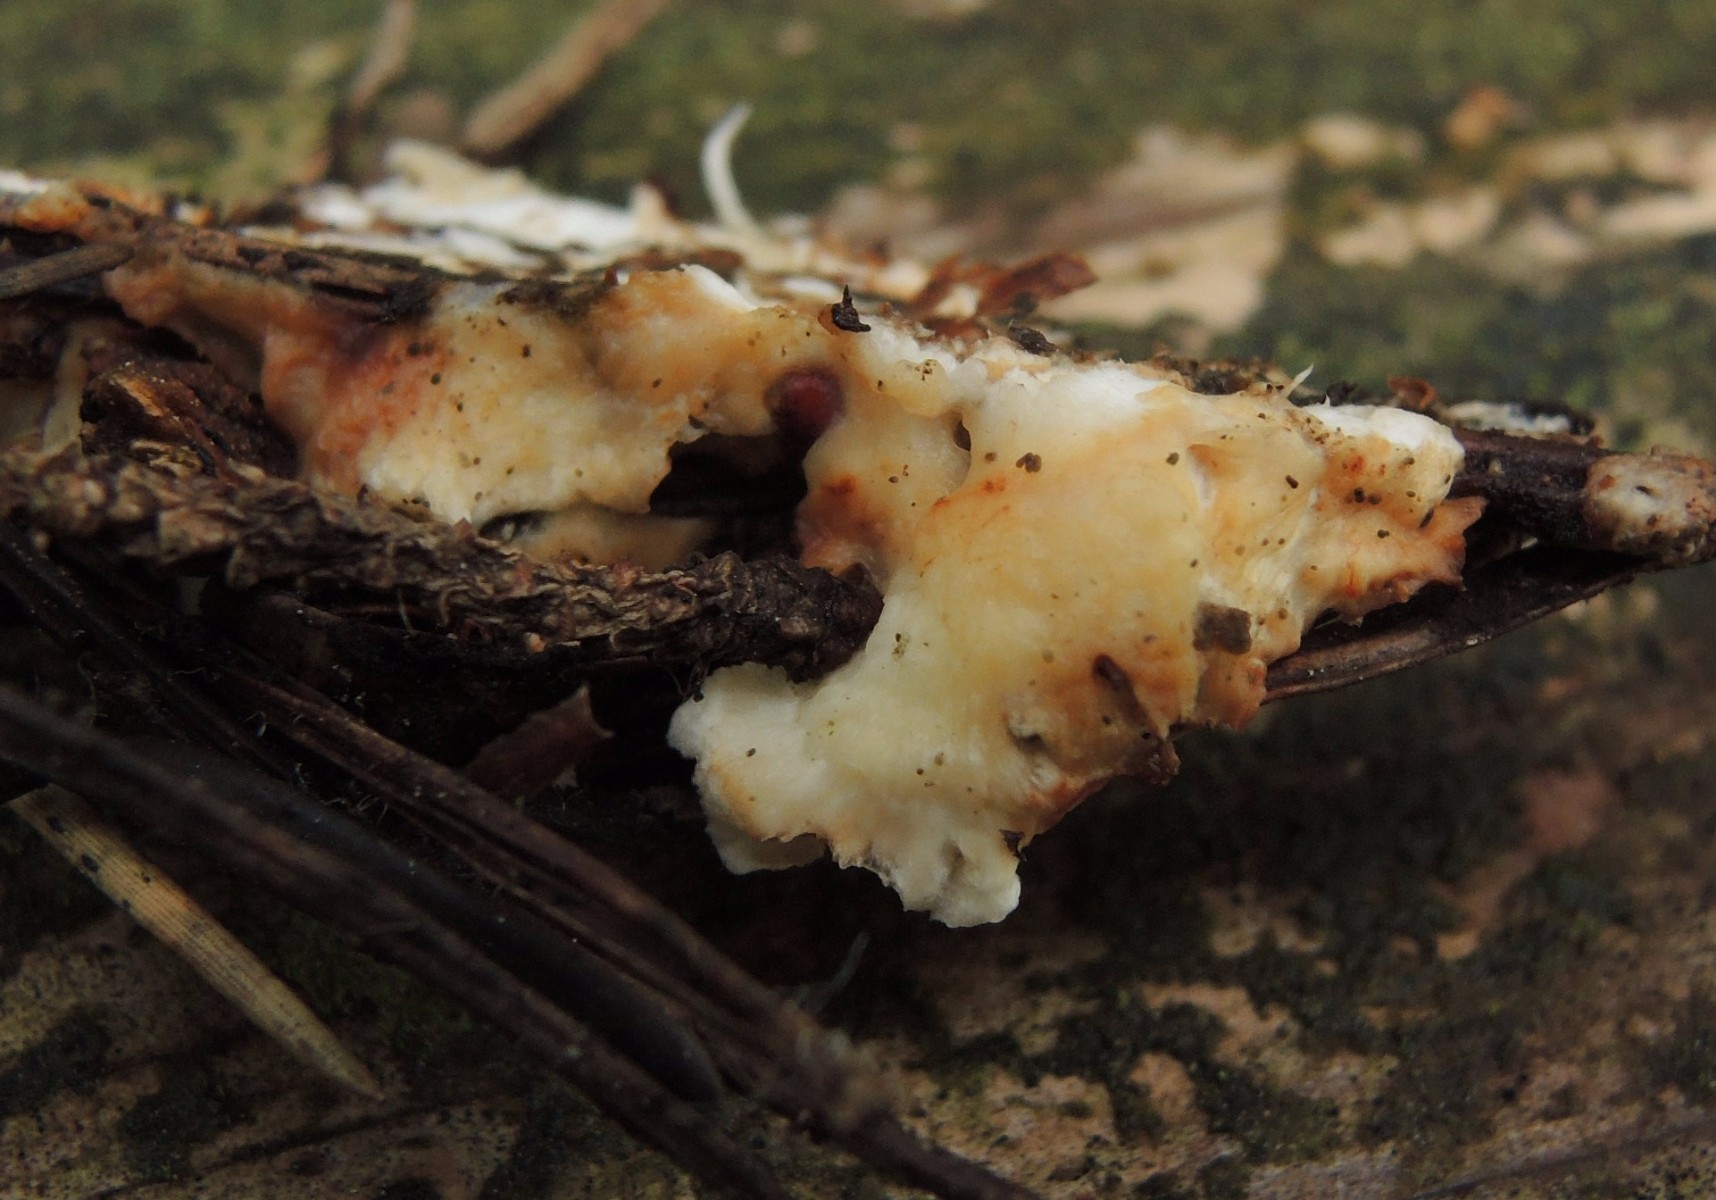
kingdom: Fungi
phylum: Basidiomycota
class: Agaricomycetes
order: Polyporales
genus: Fuscopostia
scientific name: Fuscopostia fragilis
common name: brunende kødporesvamp
